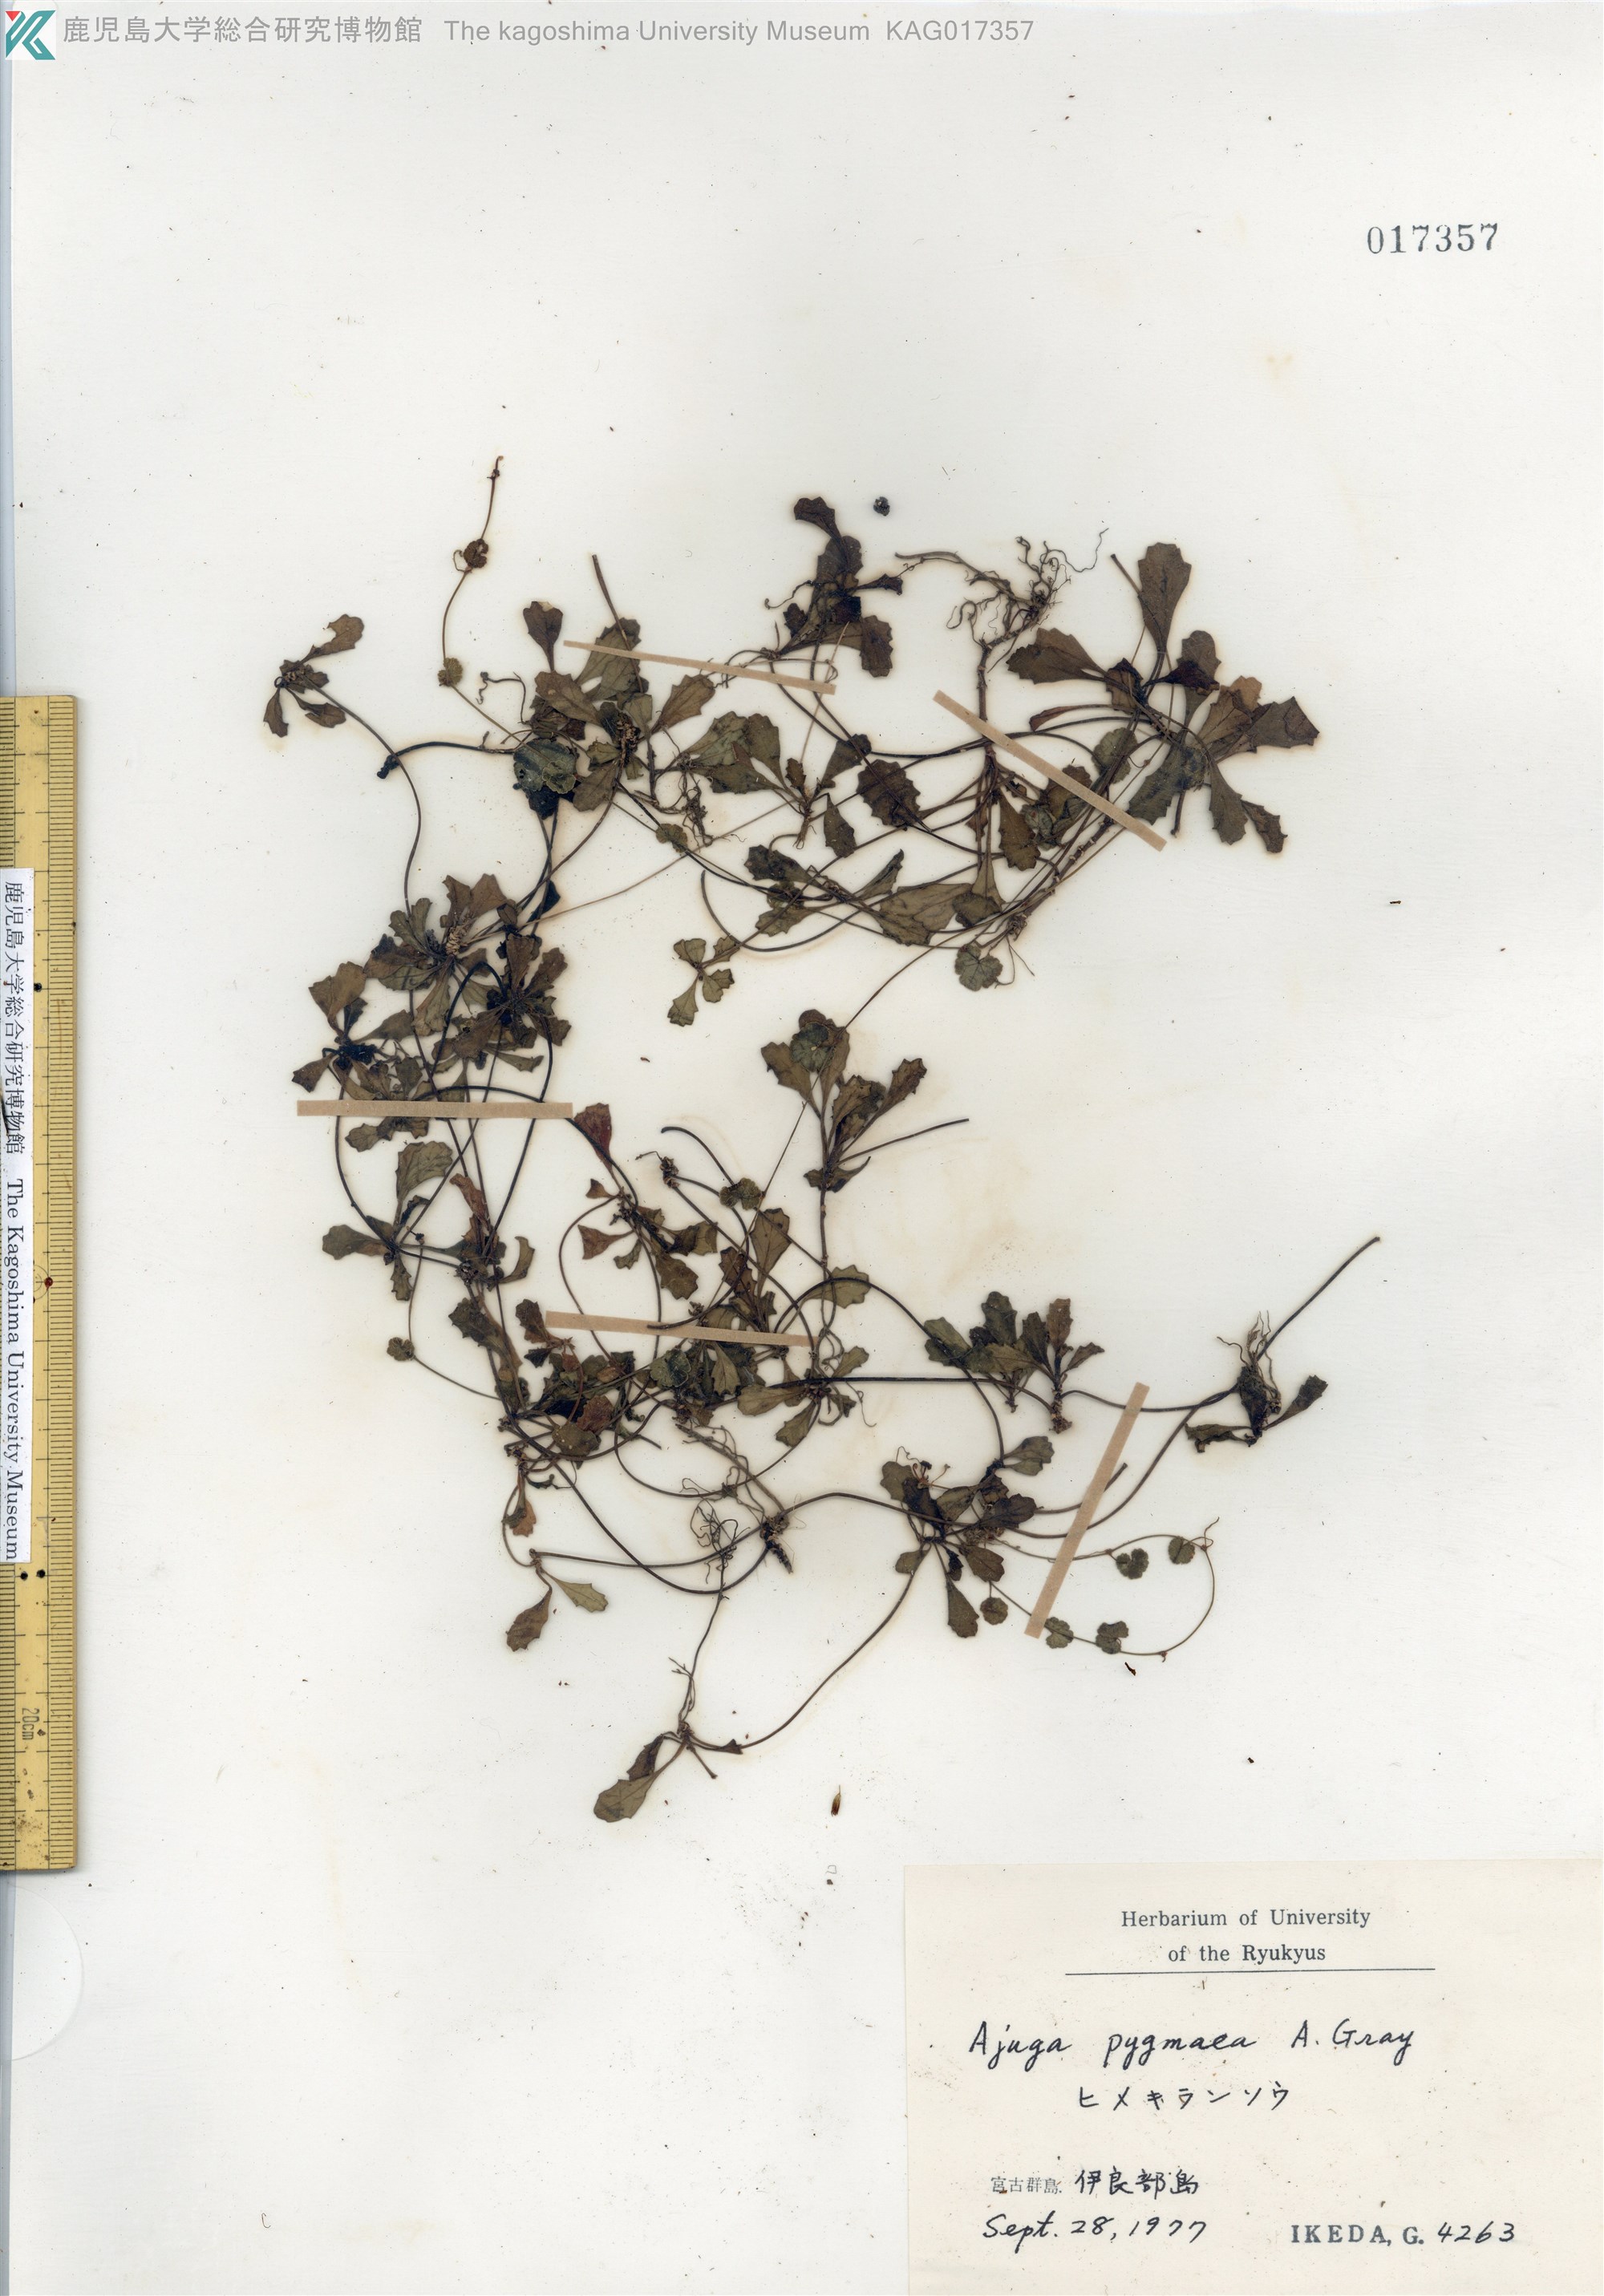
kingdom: Plantae
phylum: Tracheophyta
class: Magnoliopsida
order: Lamiales
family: Lamiaceae
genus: Ajuga
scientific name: Ajuga pygmaea
